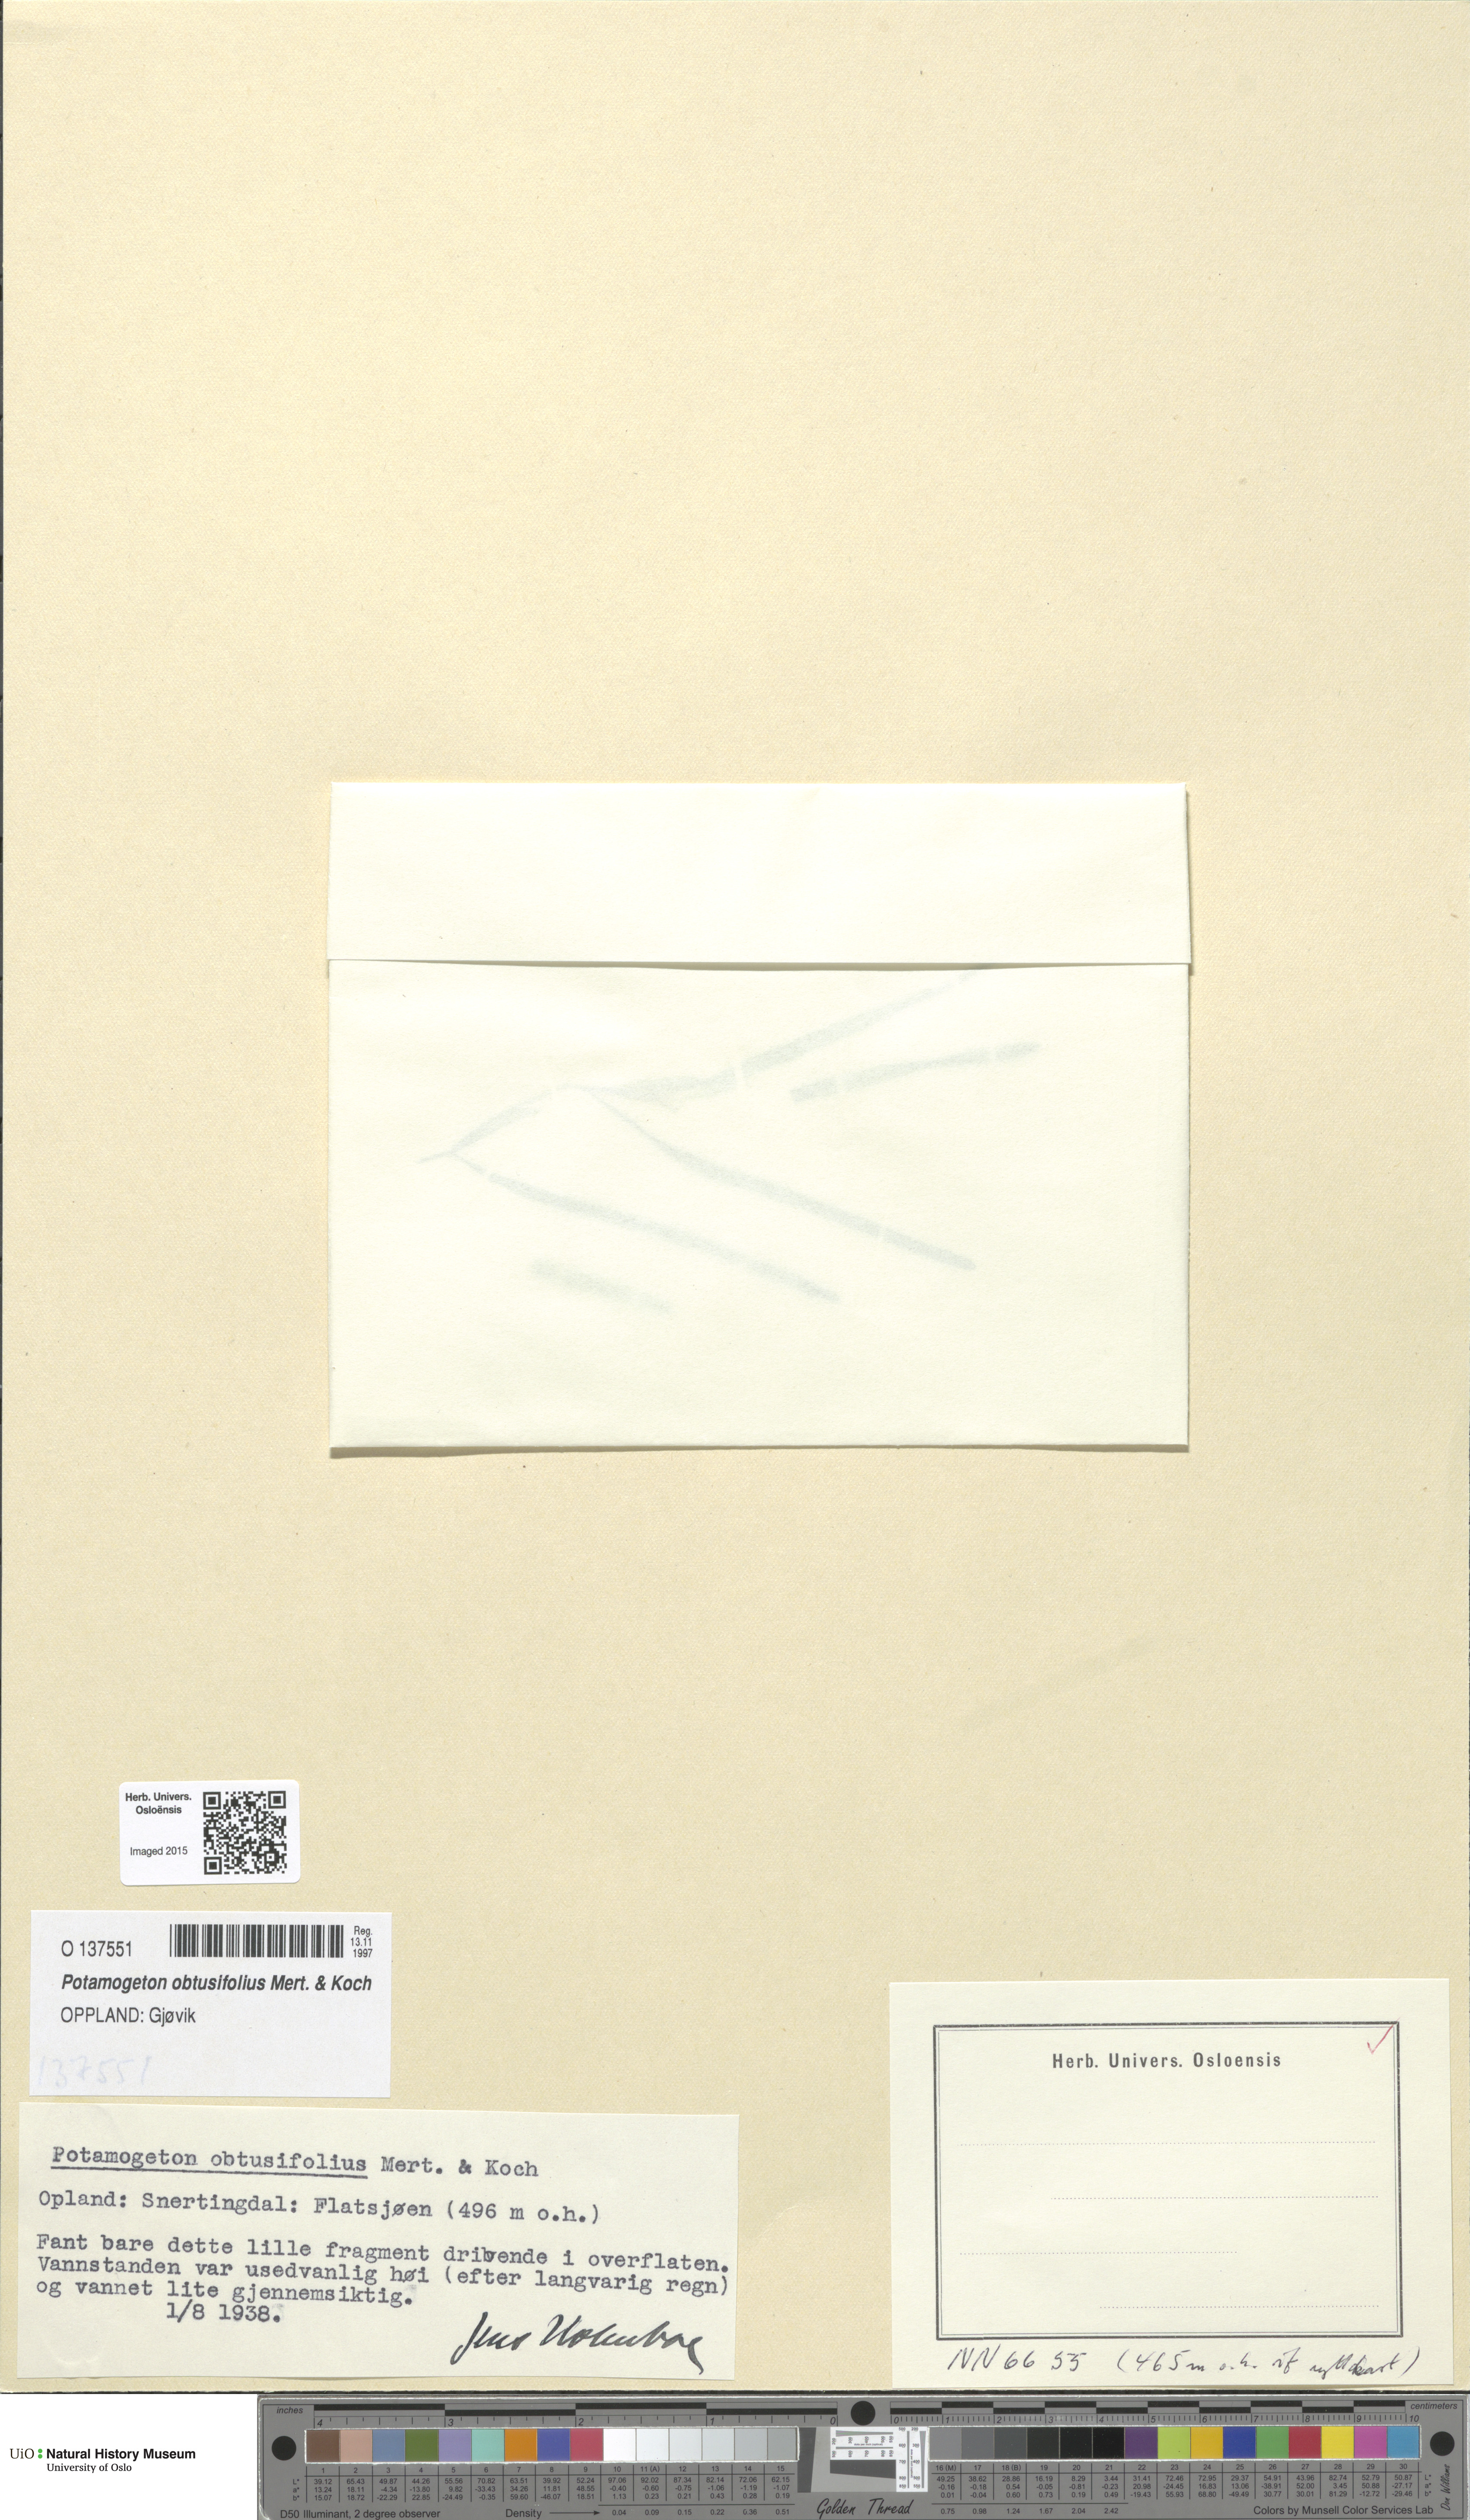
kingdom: Plantae
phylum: Tracheophyta
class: Liliopsida
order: Alismatales
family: Potamogetonaceae
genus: Potamogeton
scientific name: Potamogeton obtusifolius
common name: Blunt-leaved pondweed
